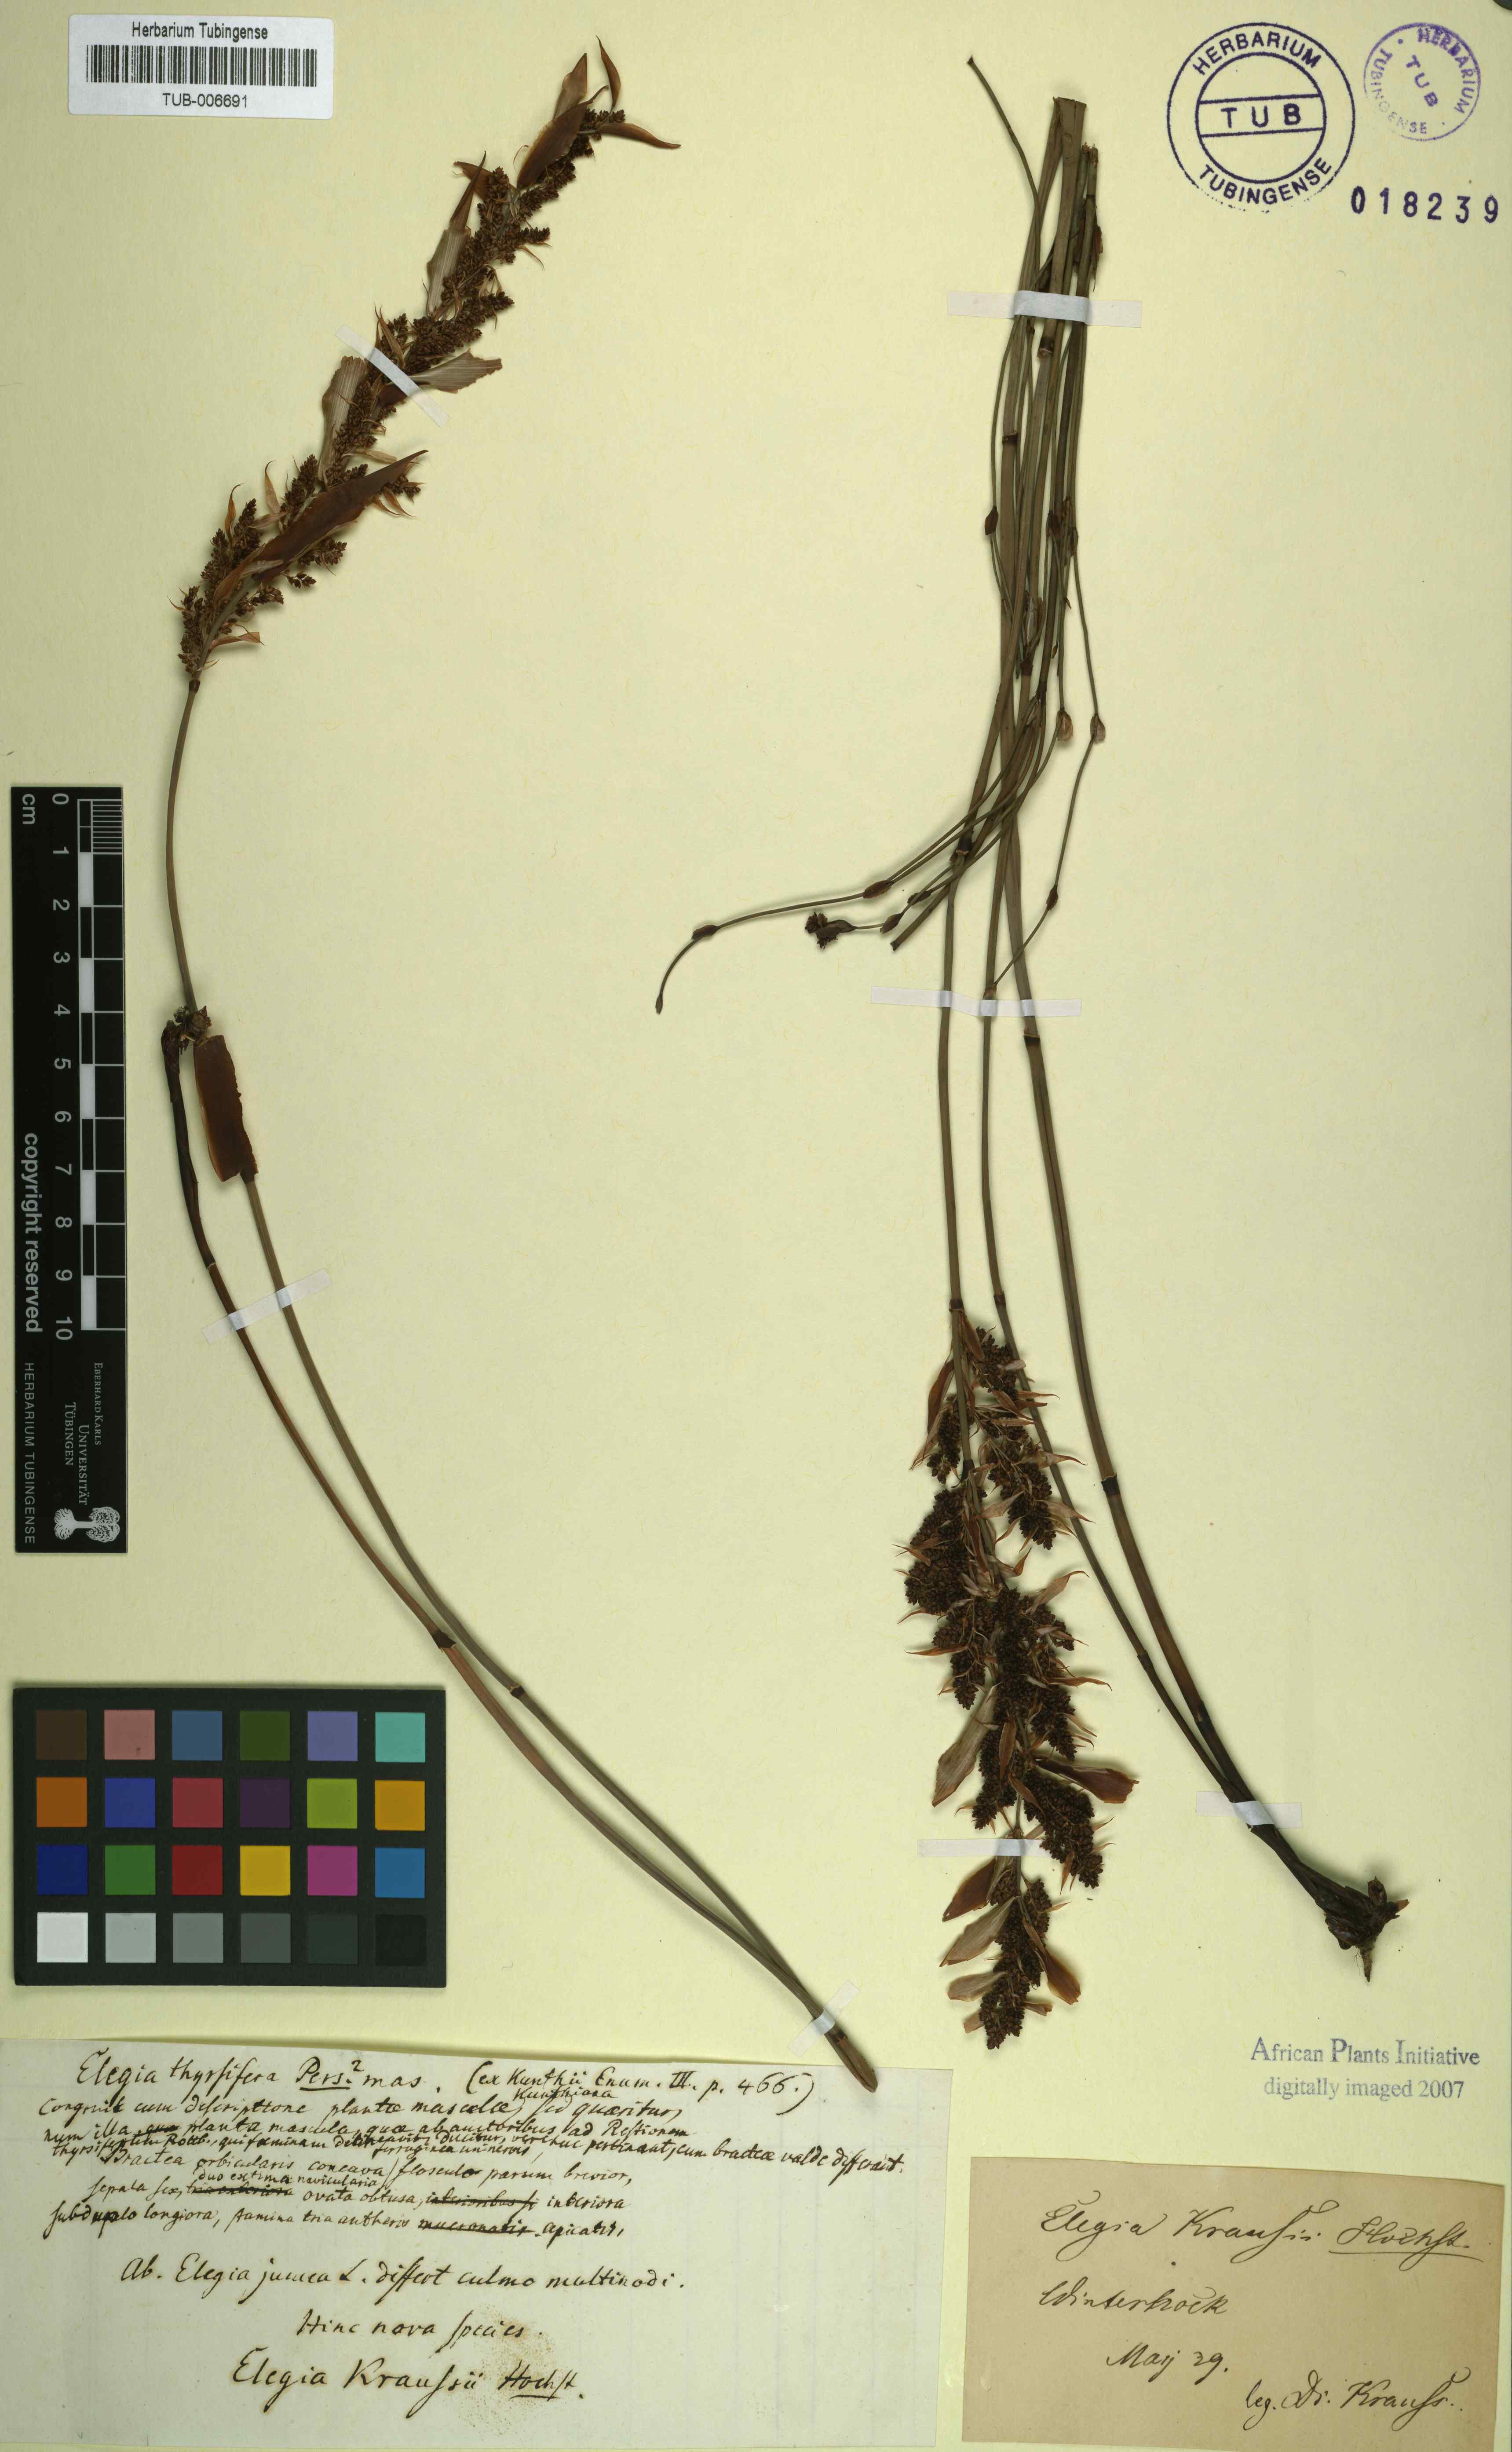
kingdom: Plantae
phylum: Tracheophyta
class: Liliopsida
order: Poales
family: Restionaceae
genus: Elegia
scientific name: Elegia juncea
